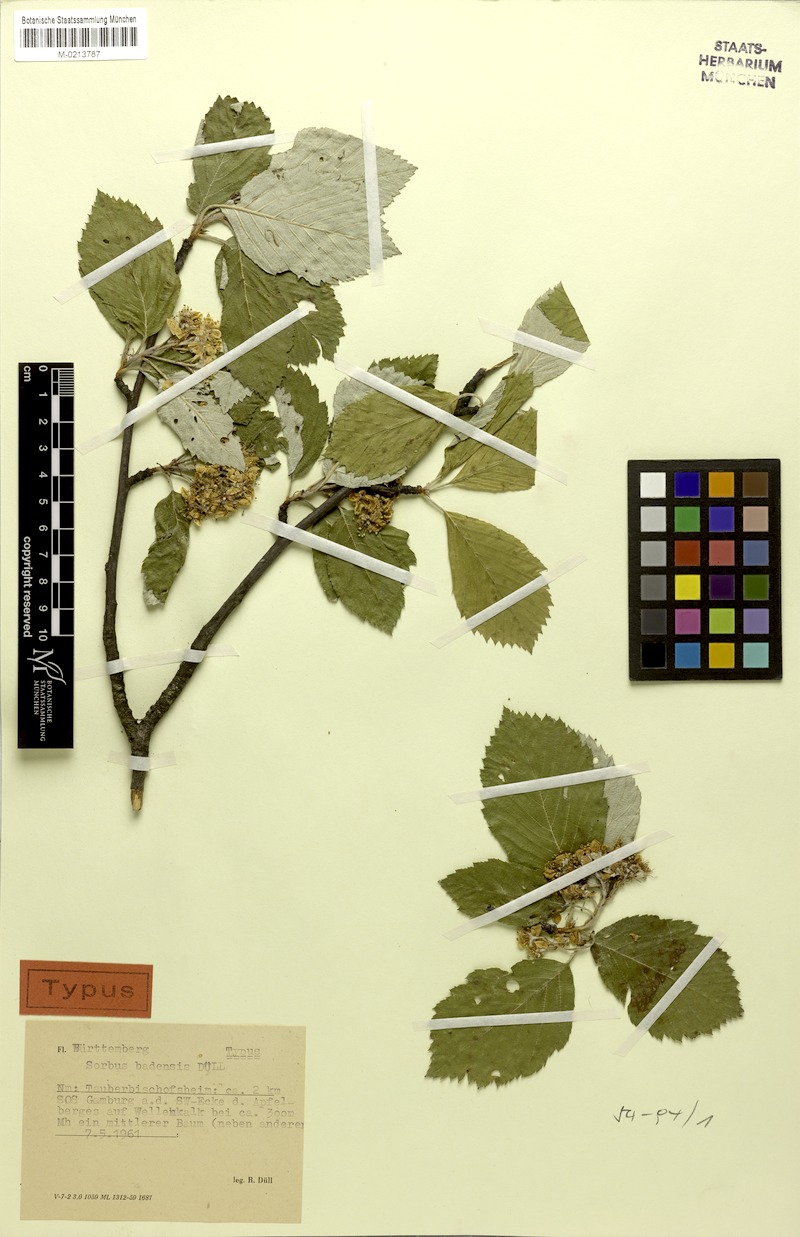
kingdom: Plantae
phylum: Tracheophyta
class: Magnoliopsida
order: Rosales
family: Rosaceae
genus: Karpatiosorbus
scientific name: Karpatiosorbus badensis
